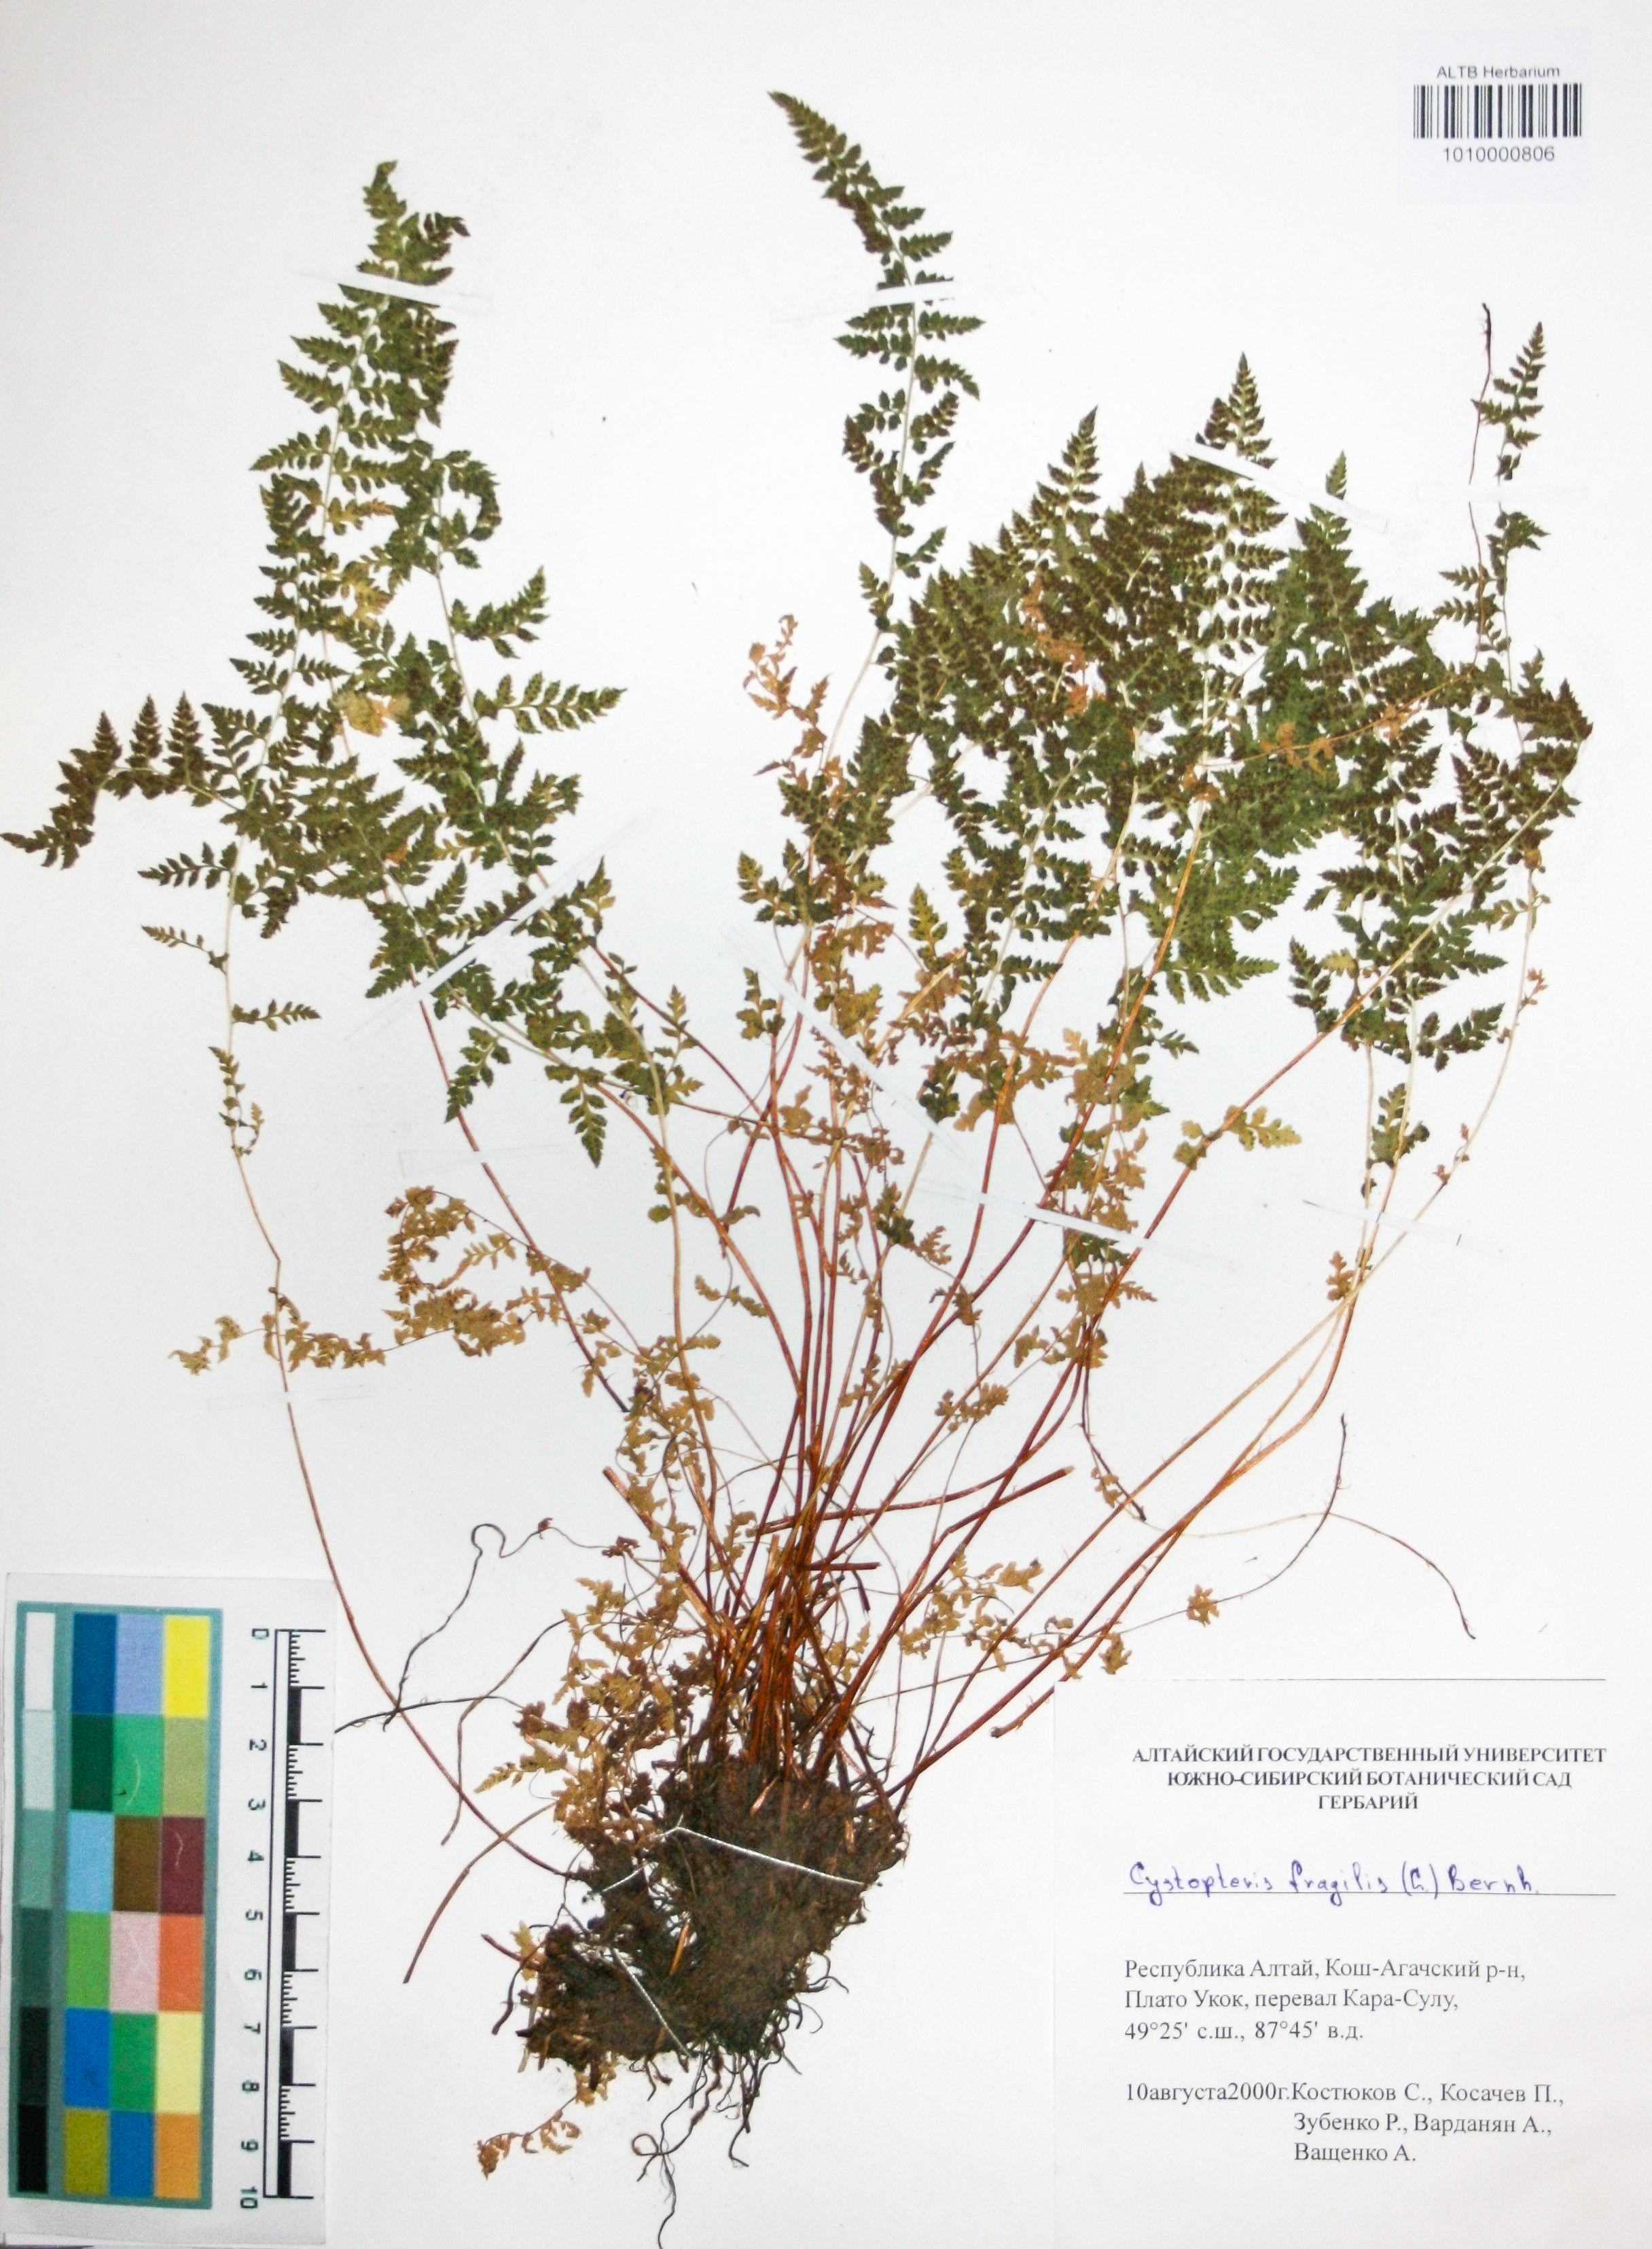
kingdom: Plantae
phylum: Tracheophyta
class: Polypodiopsida
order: Polypodiales
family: Cystopteridaceae
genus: Cystopteris
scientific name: Cystopteris fragilis
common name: Brittle bladder fern
